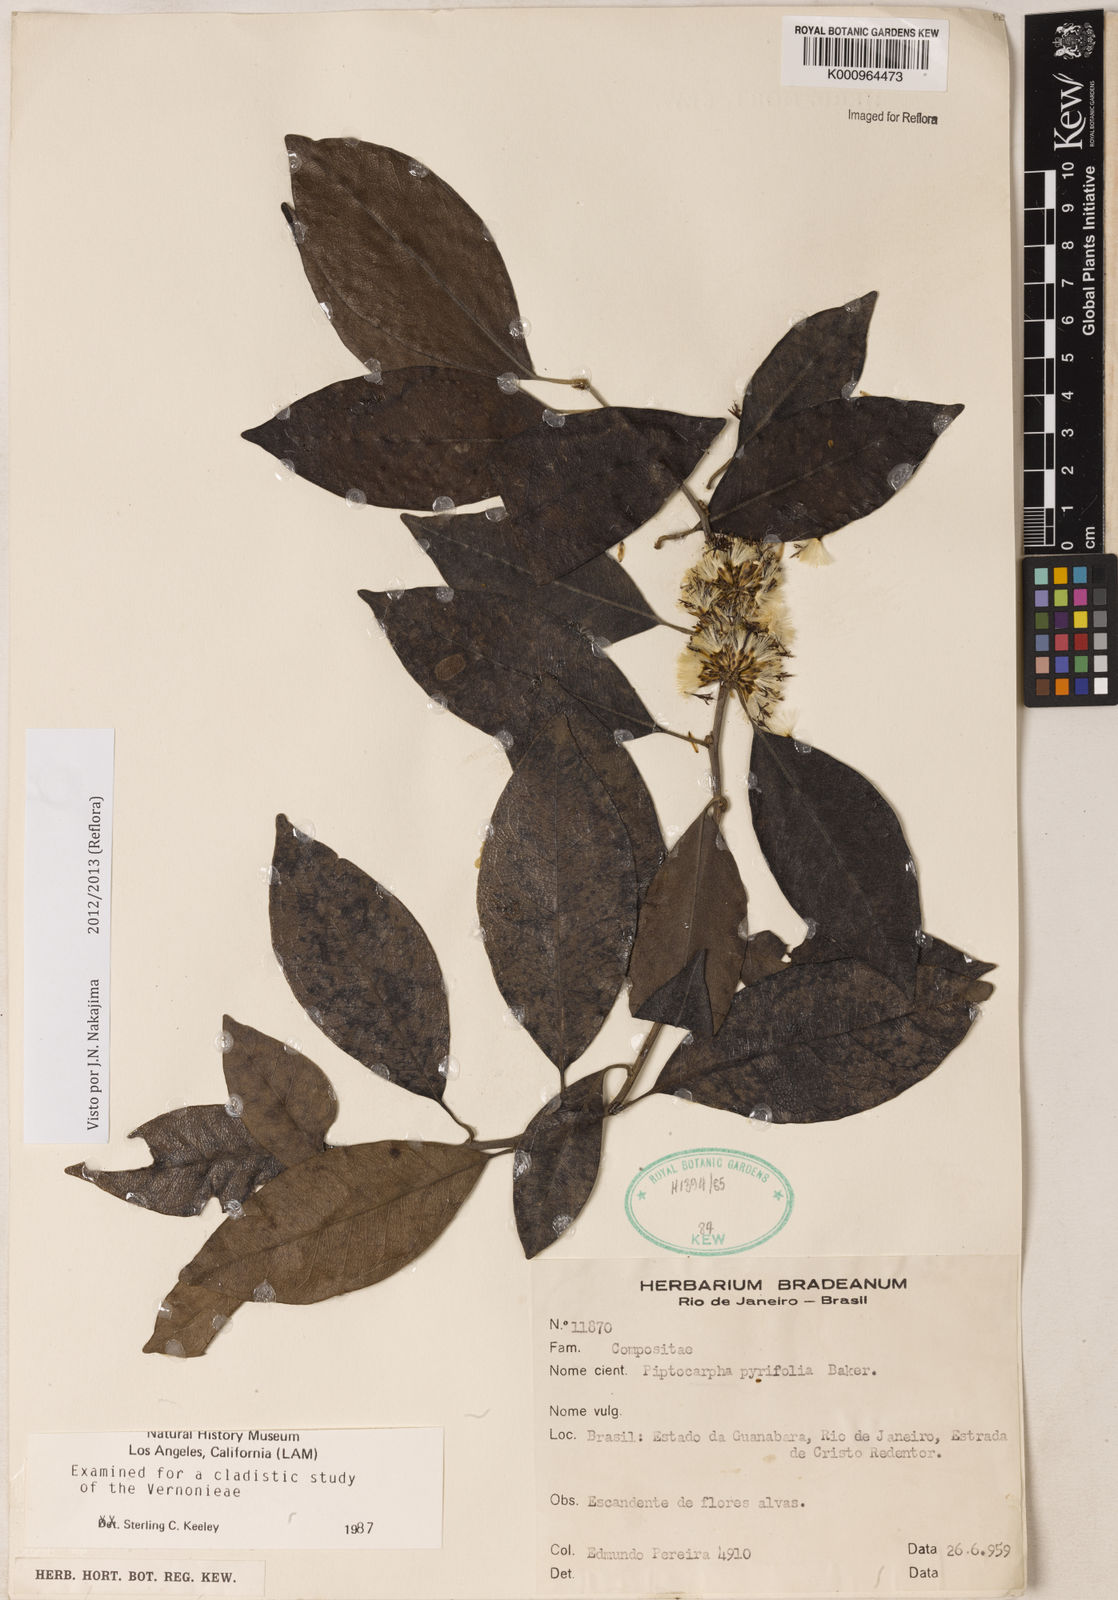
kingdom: Plantae
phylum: Tracheophyta
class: Magnoliopsida
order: Asterales
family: Asteraceae
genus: Piptocarpha
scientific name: Piptocarpha pyrifolia
